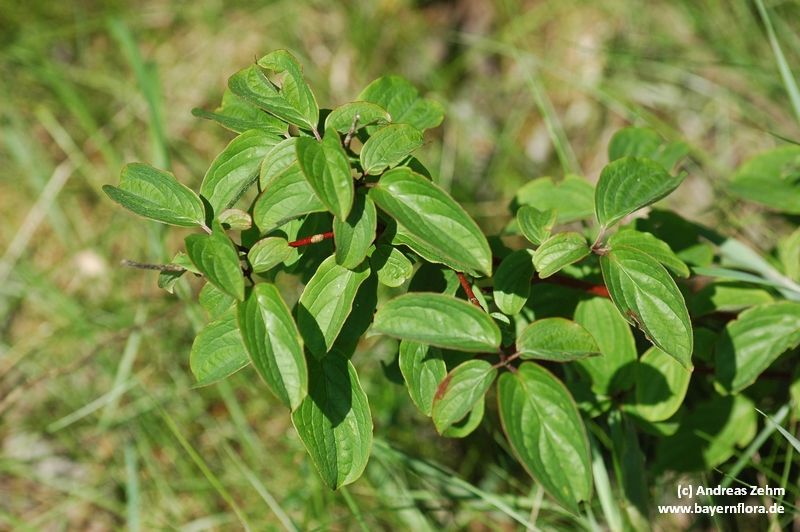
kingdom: Plantae
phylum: Tracheophyta
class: Magnoliopsida
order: Cornales
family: Cornaceae
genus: Cornus
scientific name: Cornus sanguinea
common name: Dogwood
